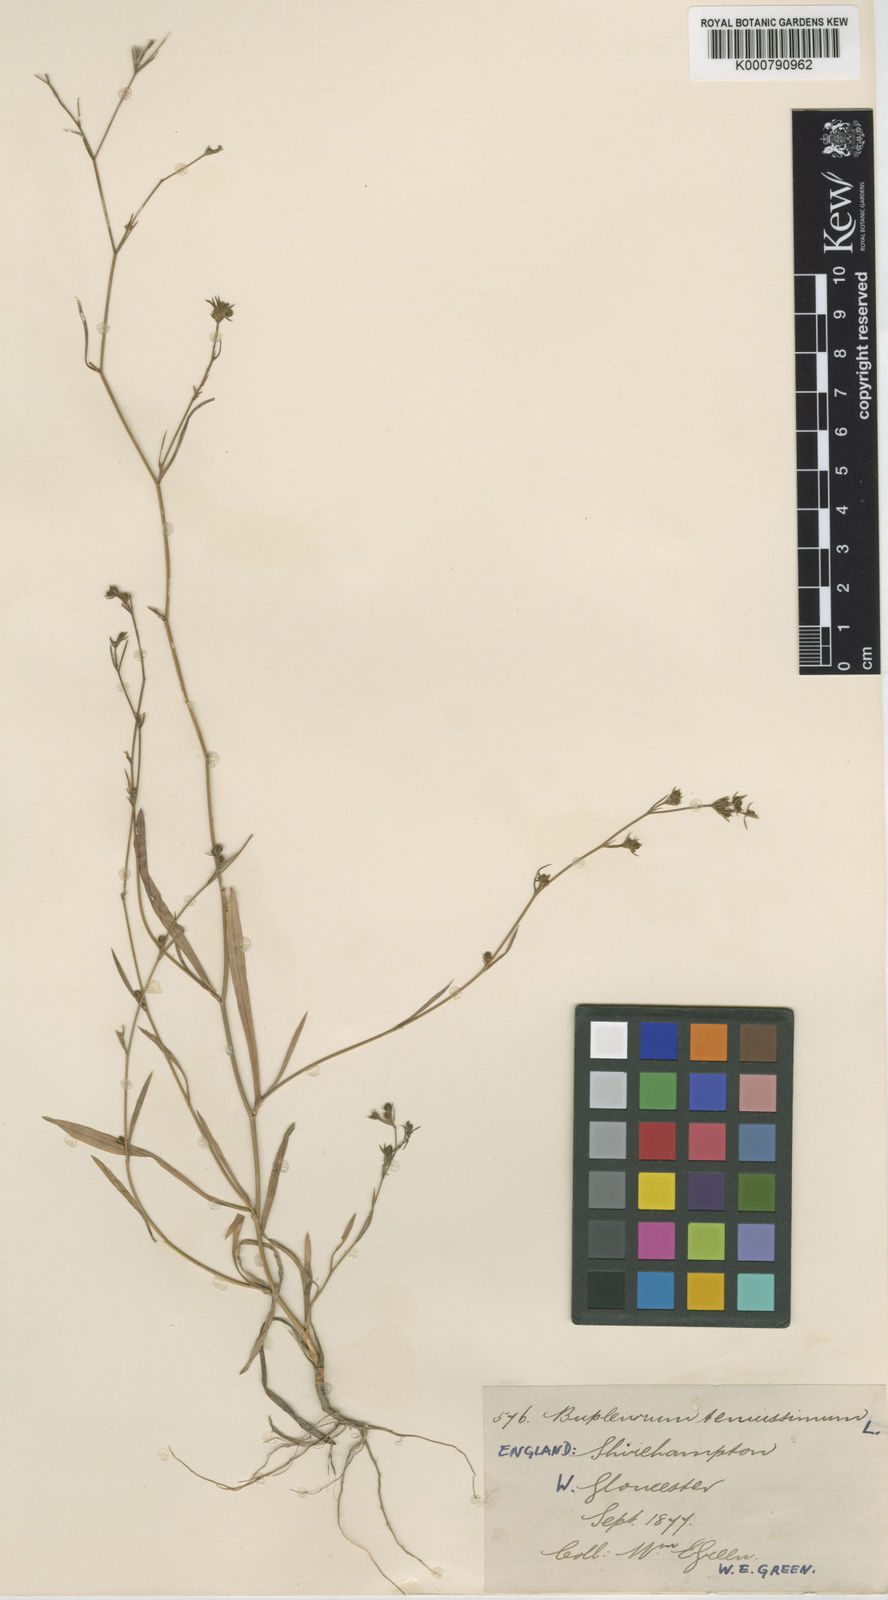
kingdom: Plantae
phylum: Tracheophyta
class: Magnoliopsida
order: Apiales
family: Apiaceae
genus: Bupleurum
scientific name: Bupleurum tenuissimum
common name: Slender hare's-ear
